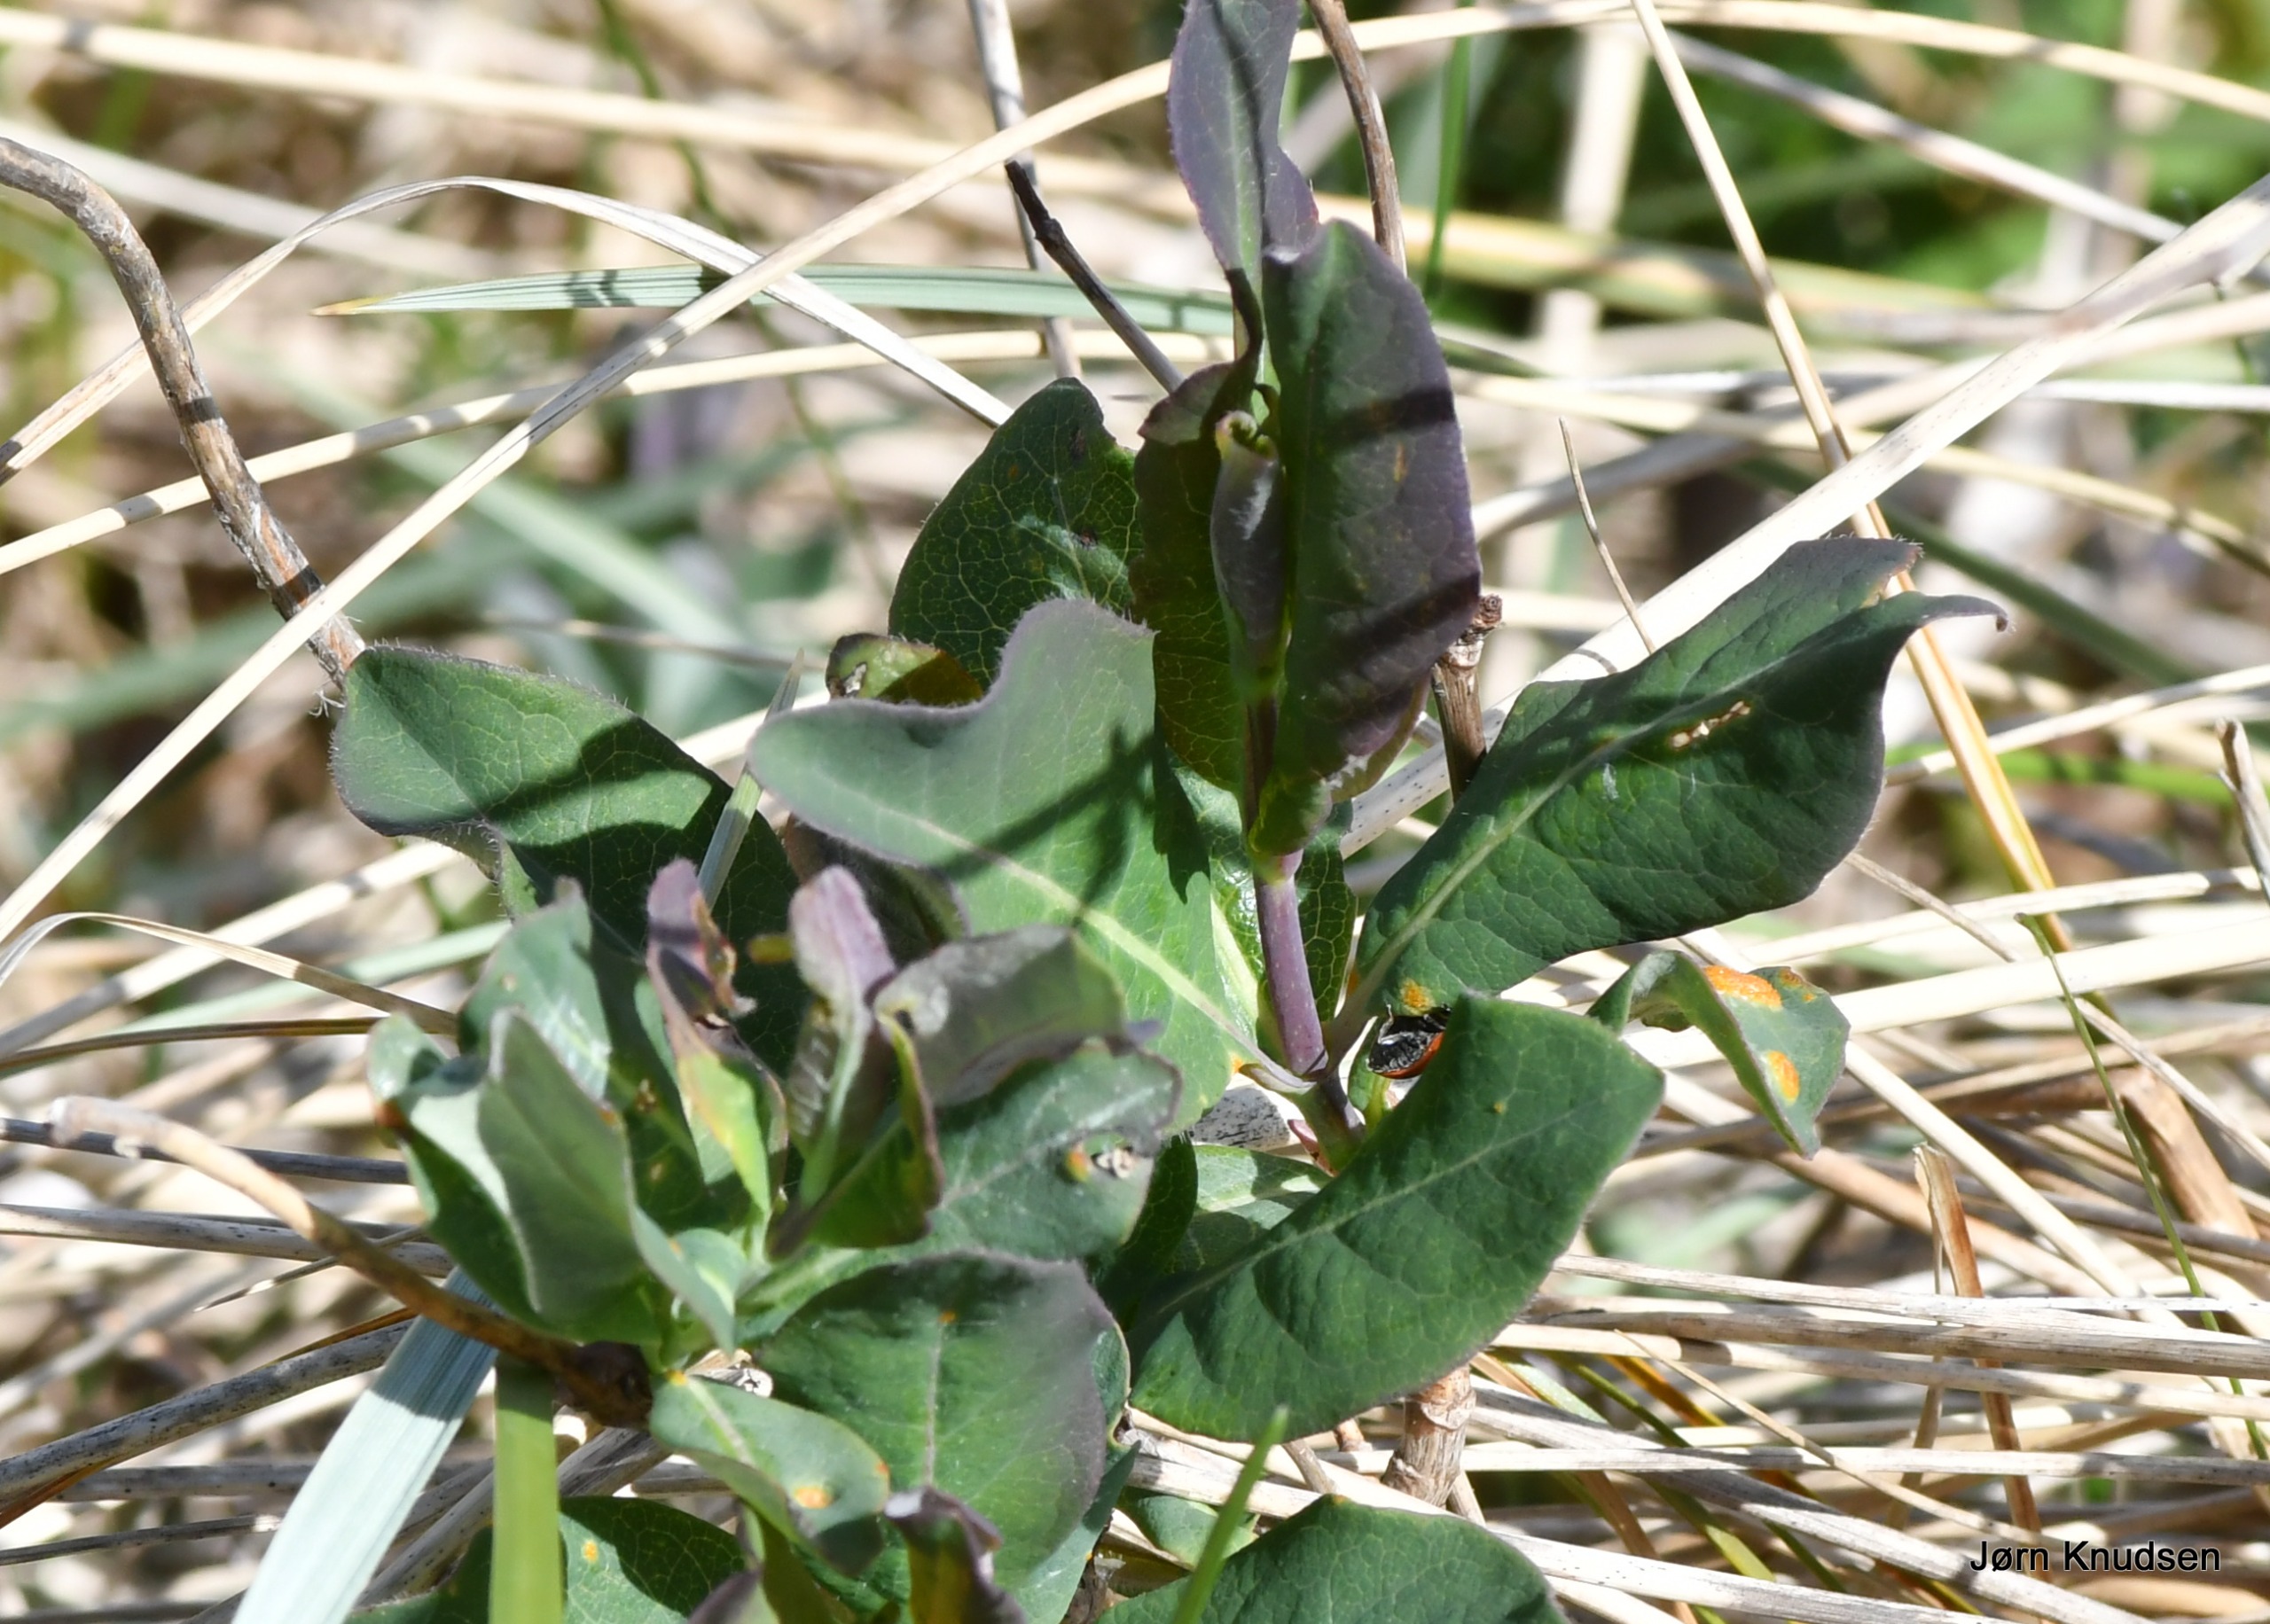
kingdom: Plantae
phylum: Tracheophyta
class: Magnoliopsida
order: Dipsacales
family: Caprifoliaceae
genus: Lonicera
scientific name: Lonicera periclymenum
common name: Almindelig gedeblad
